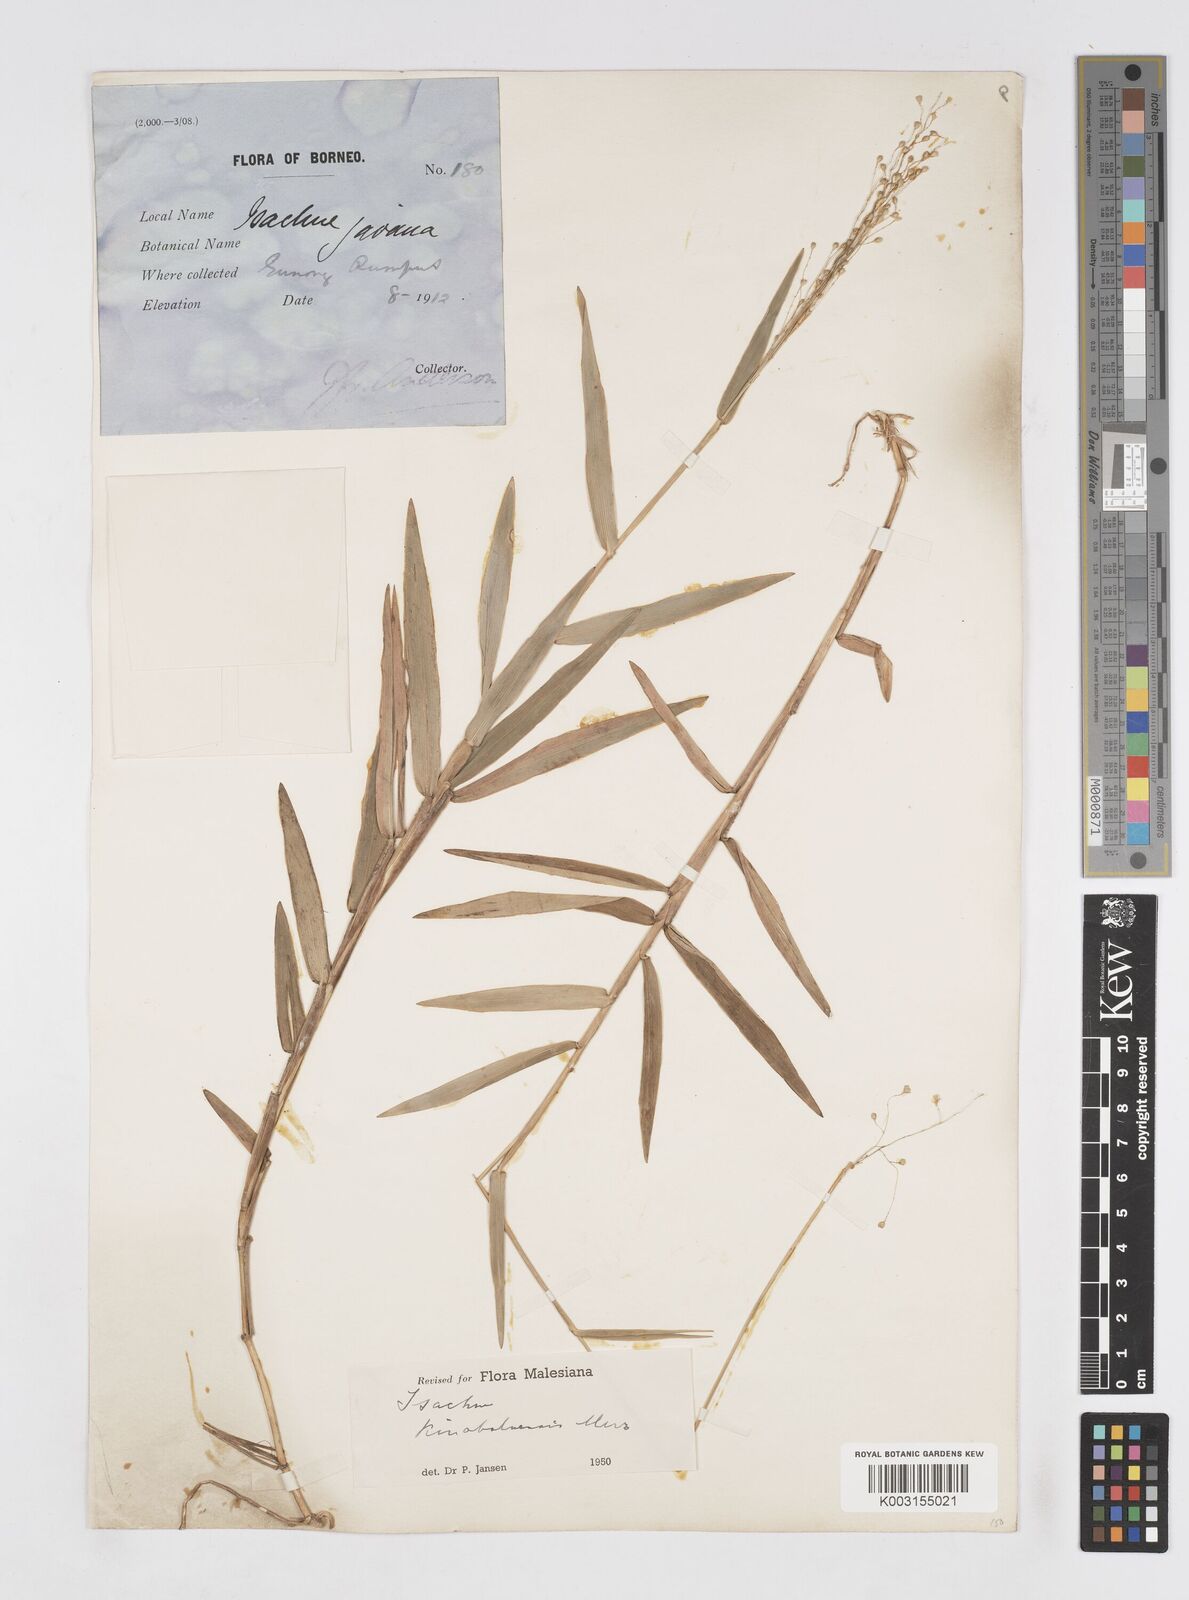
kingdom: Plantae
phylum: Tracheophyta
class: Liliopsida
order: Poales
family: Poaceae
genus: Isachne
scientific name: Isachne kinabaluensis
